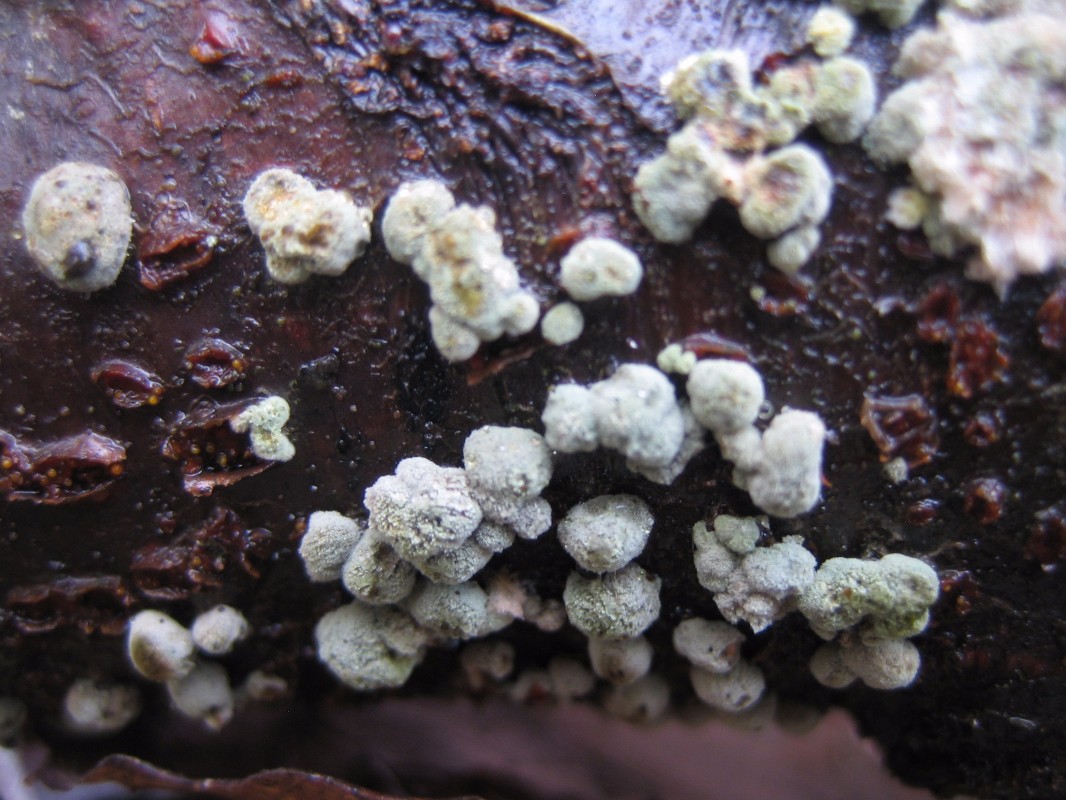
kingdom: Fungi
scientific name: Fungi
